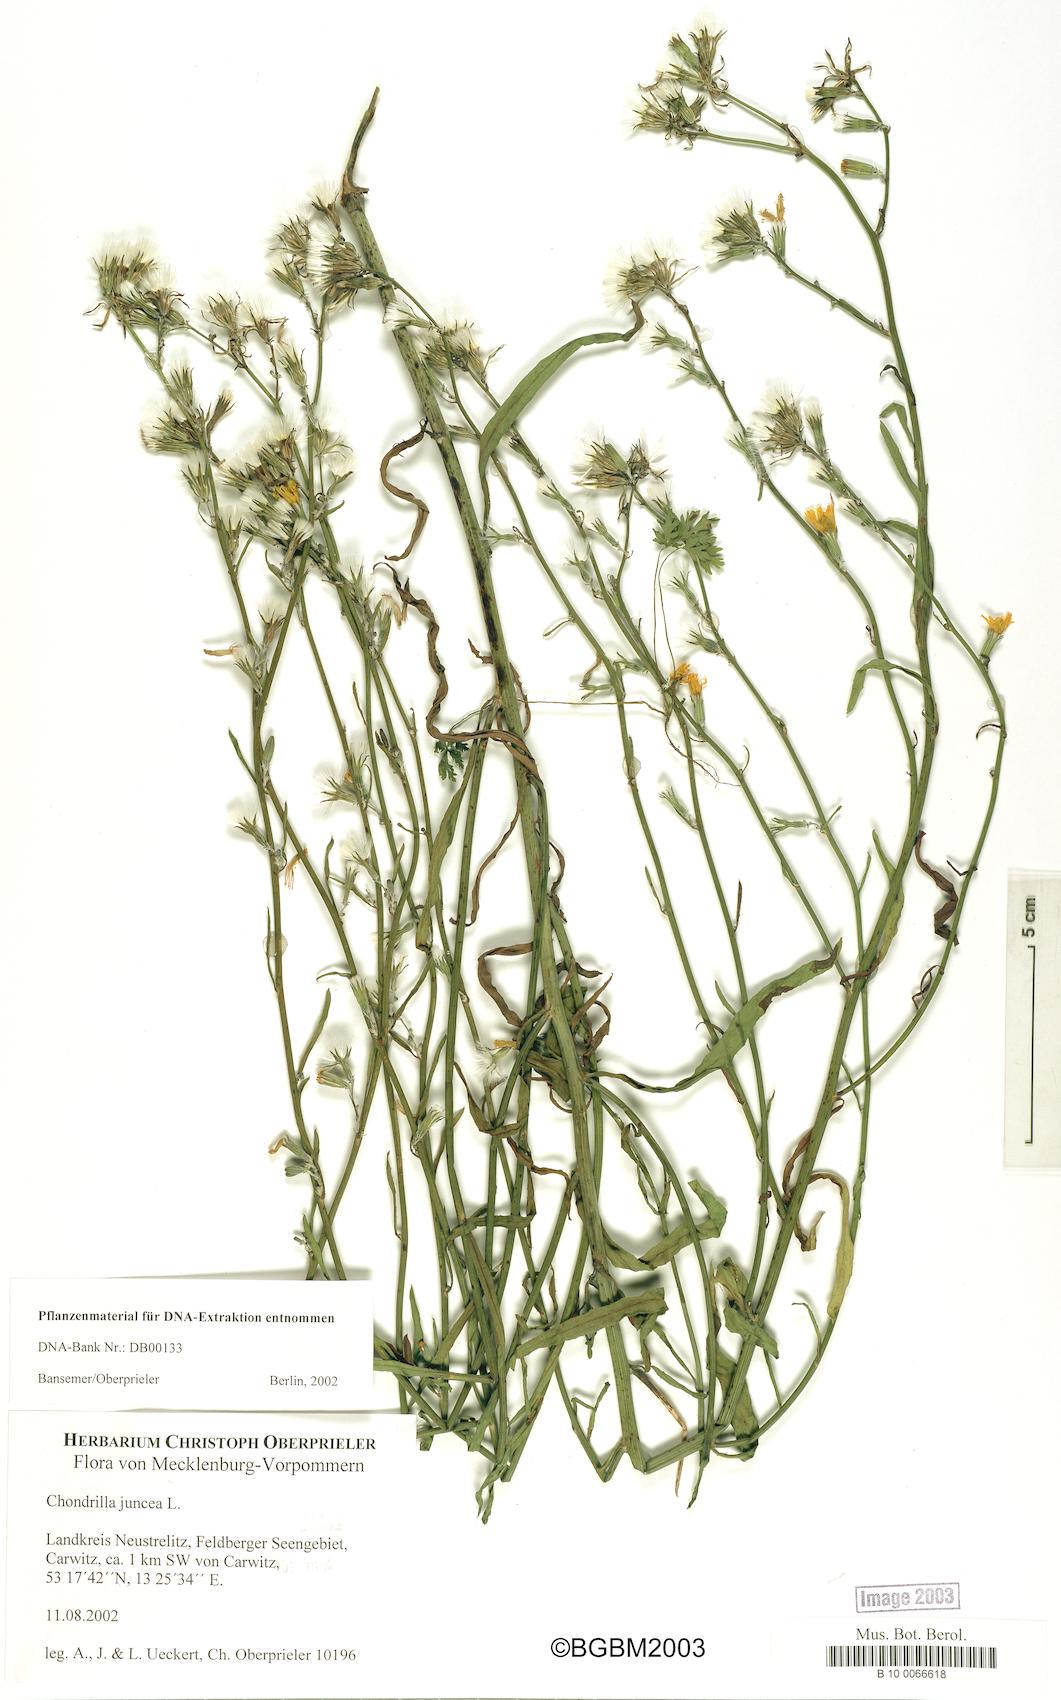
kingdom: Plantae
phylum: Tracheophyta
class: Magnoliopsida
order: Asterales
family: Asteraceae
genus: Chondrilla
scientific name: Chondrilla juncea
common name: Skeleton weed
